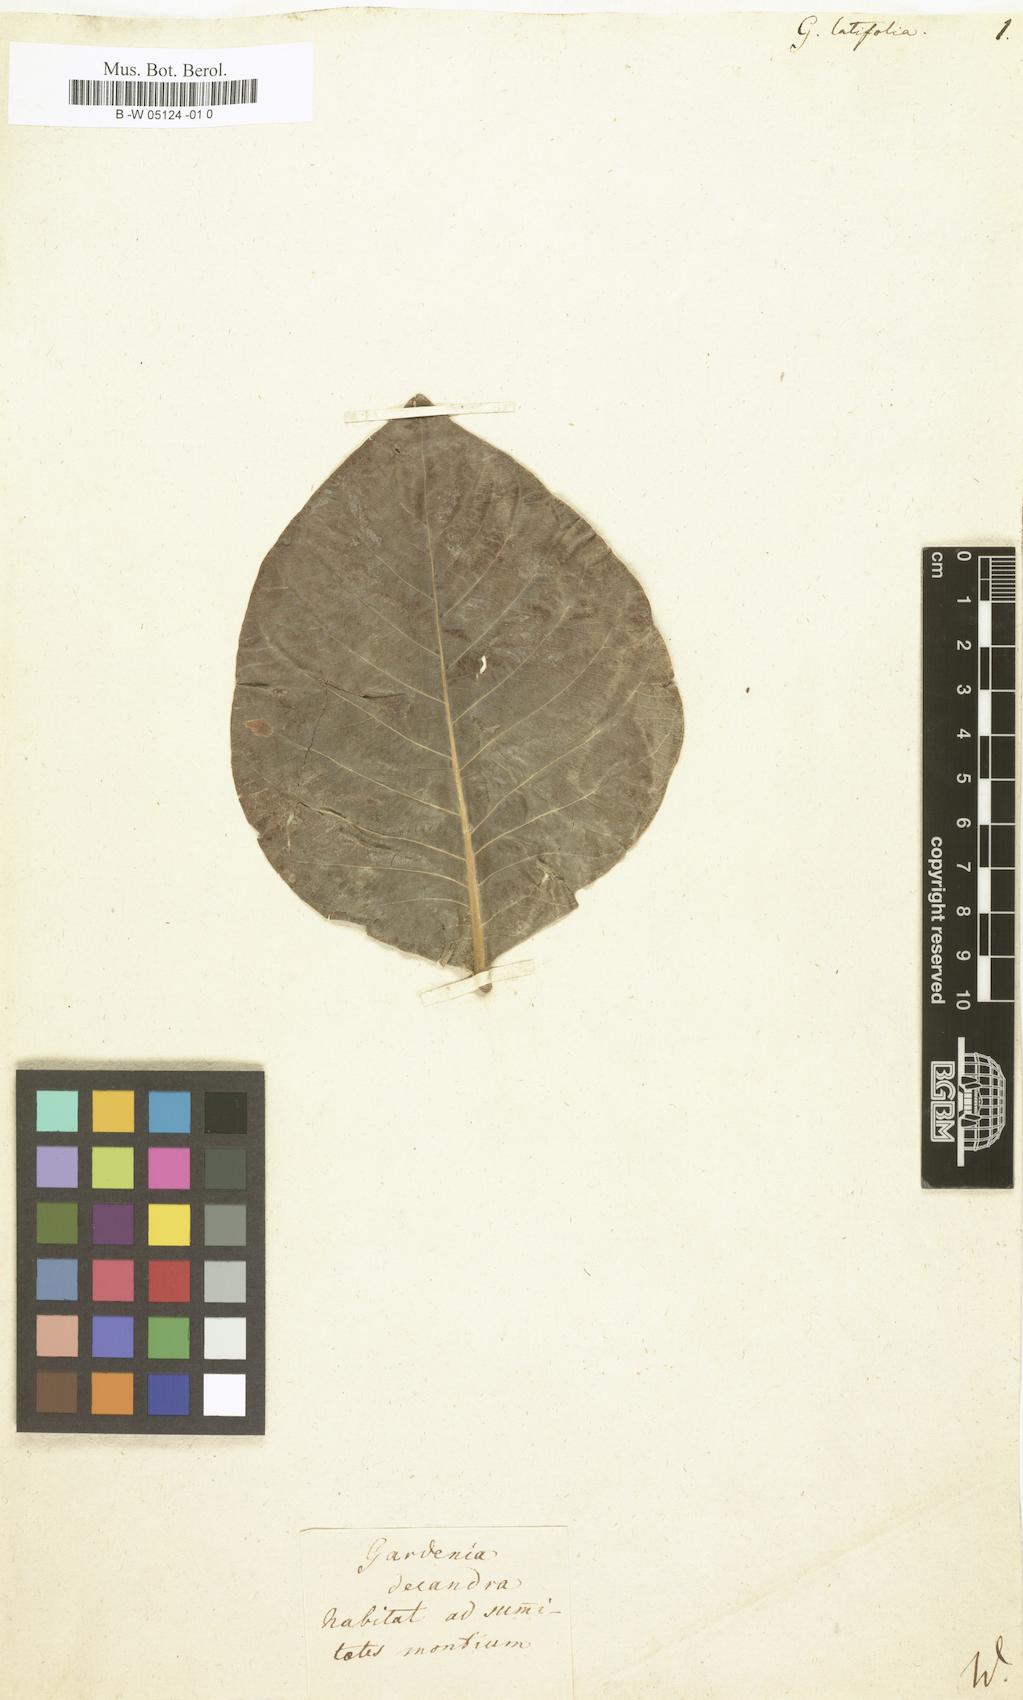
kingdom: Plantae
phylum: Tracheophyta
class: Magnoliopsida
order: Gentianales
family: Rubiaceae
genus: Gardenia
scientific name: Gardenia latifolia
